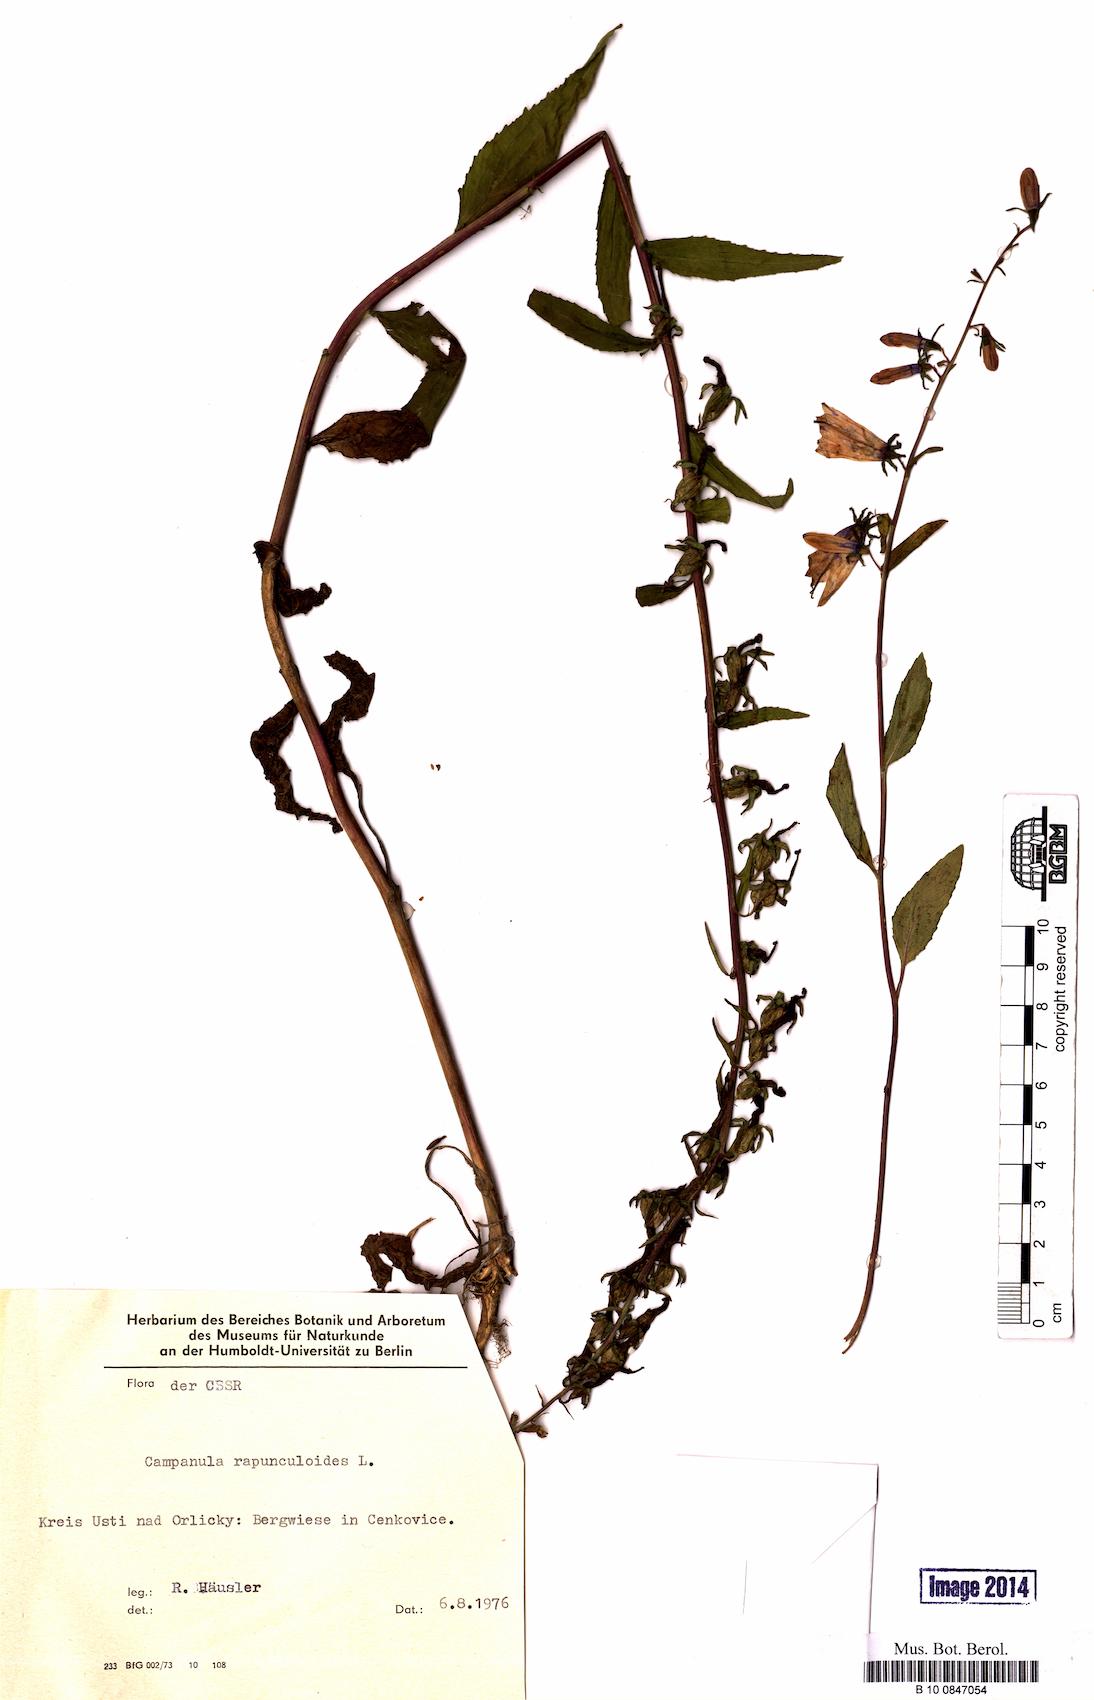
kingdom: Plantae
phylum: Tracheophyta
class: Magnoliopsida
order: Asterales
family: Campanulaceae
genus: Campanula
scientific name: Campanula rapunculoides
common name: Creeping bellflower
